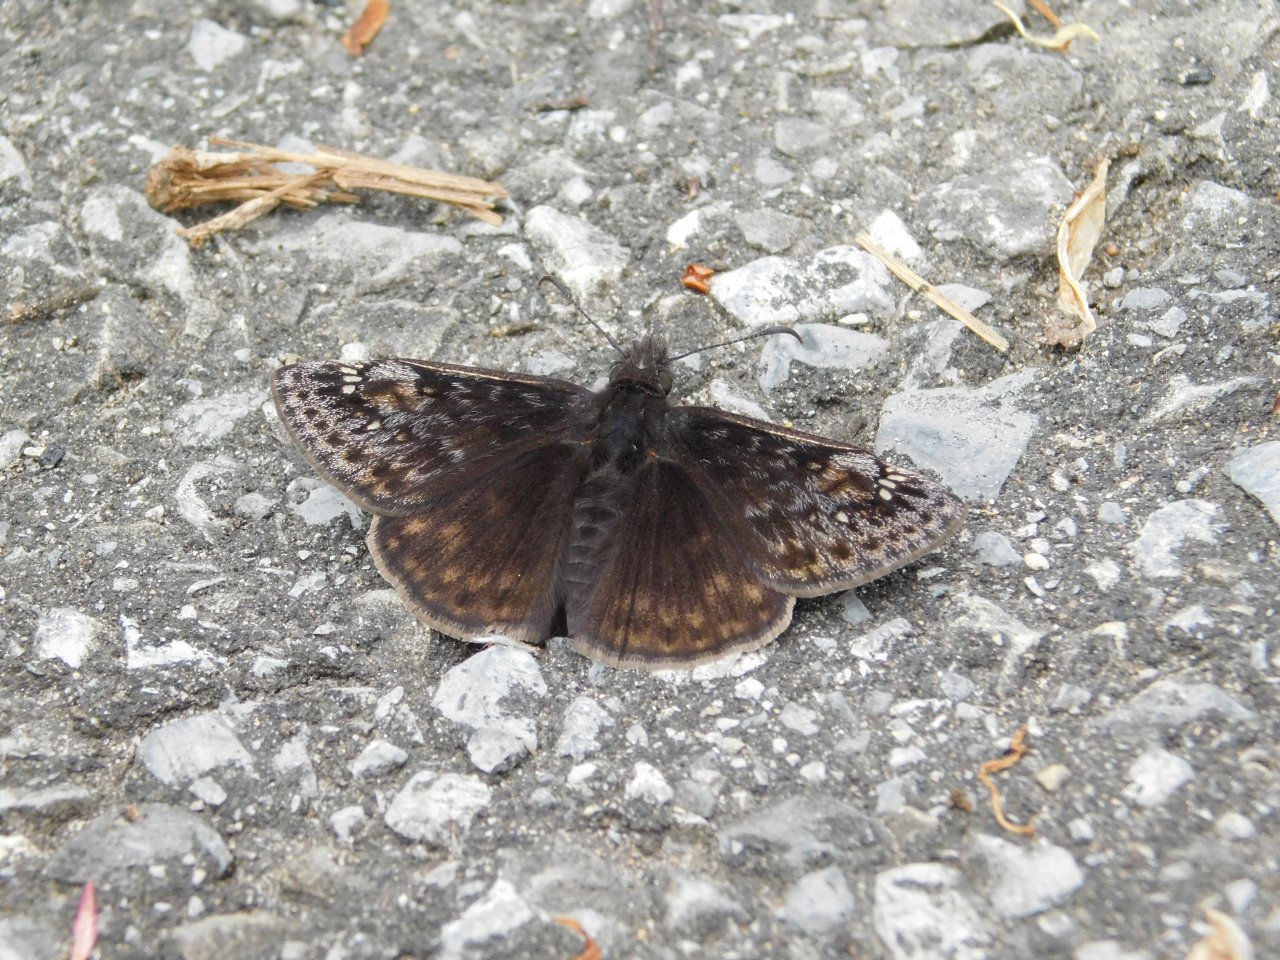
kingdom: Animalia
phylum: Arthropoda
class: Insecta
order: Lepidoptera
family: Hesperiidae
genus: Gesta
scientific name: Gesta
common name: Juvenal's Duskywing
